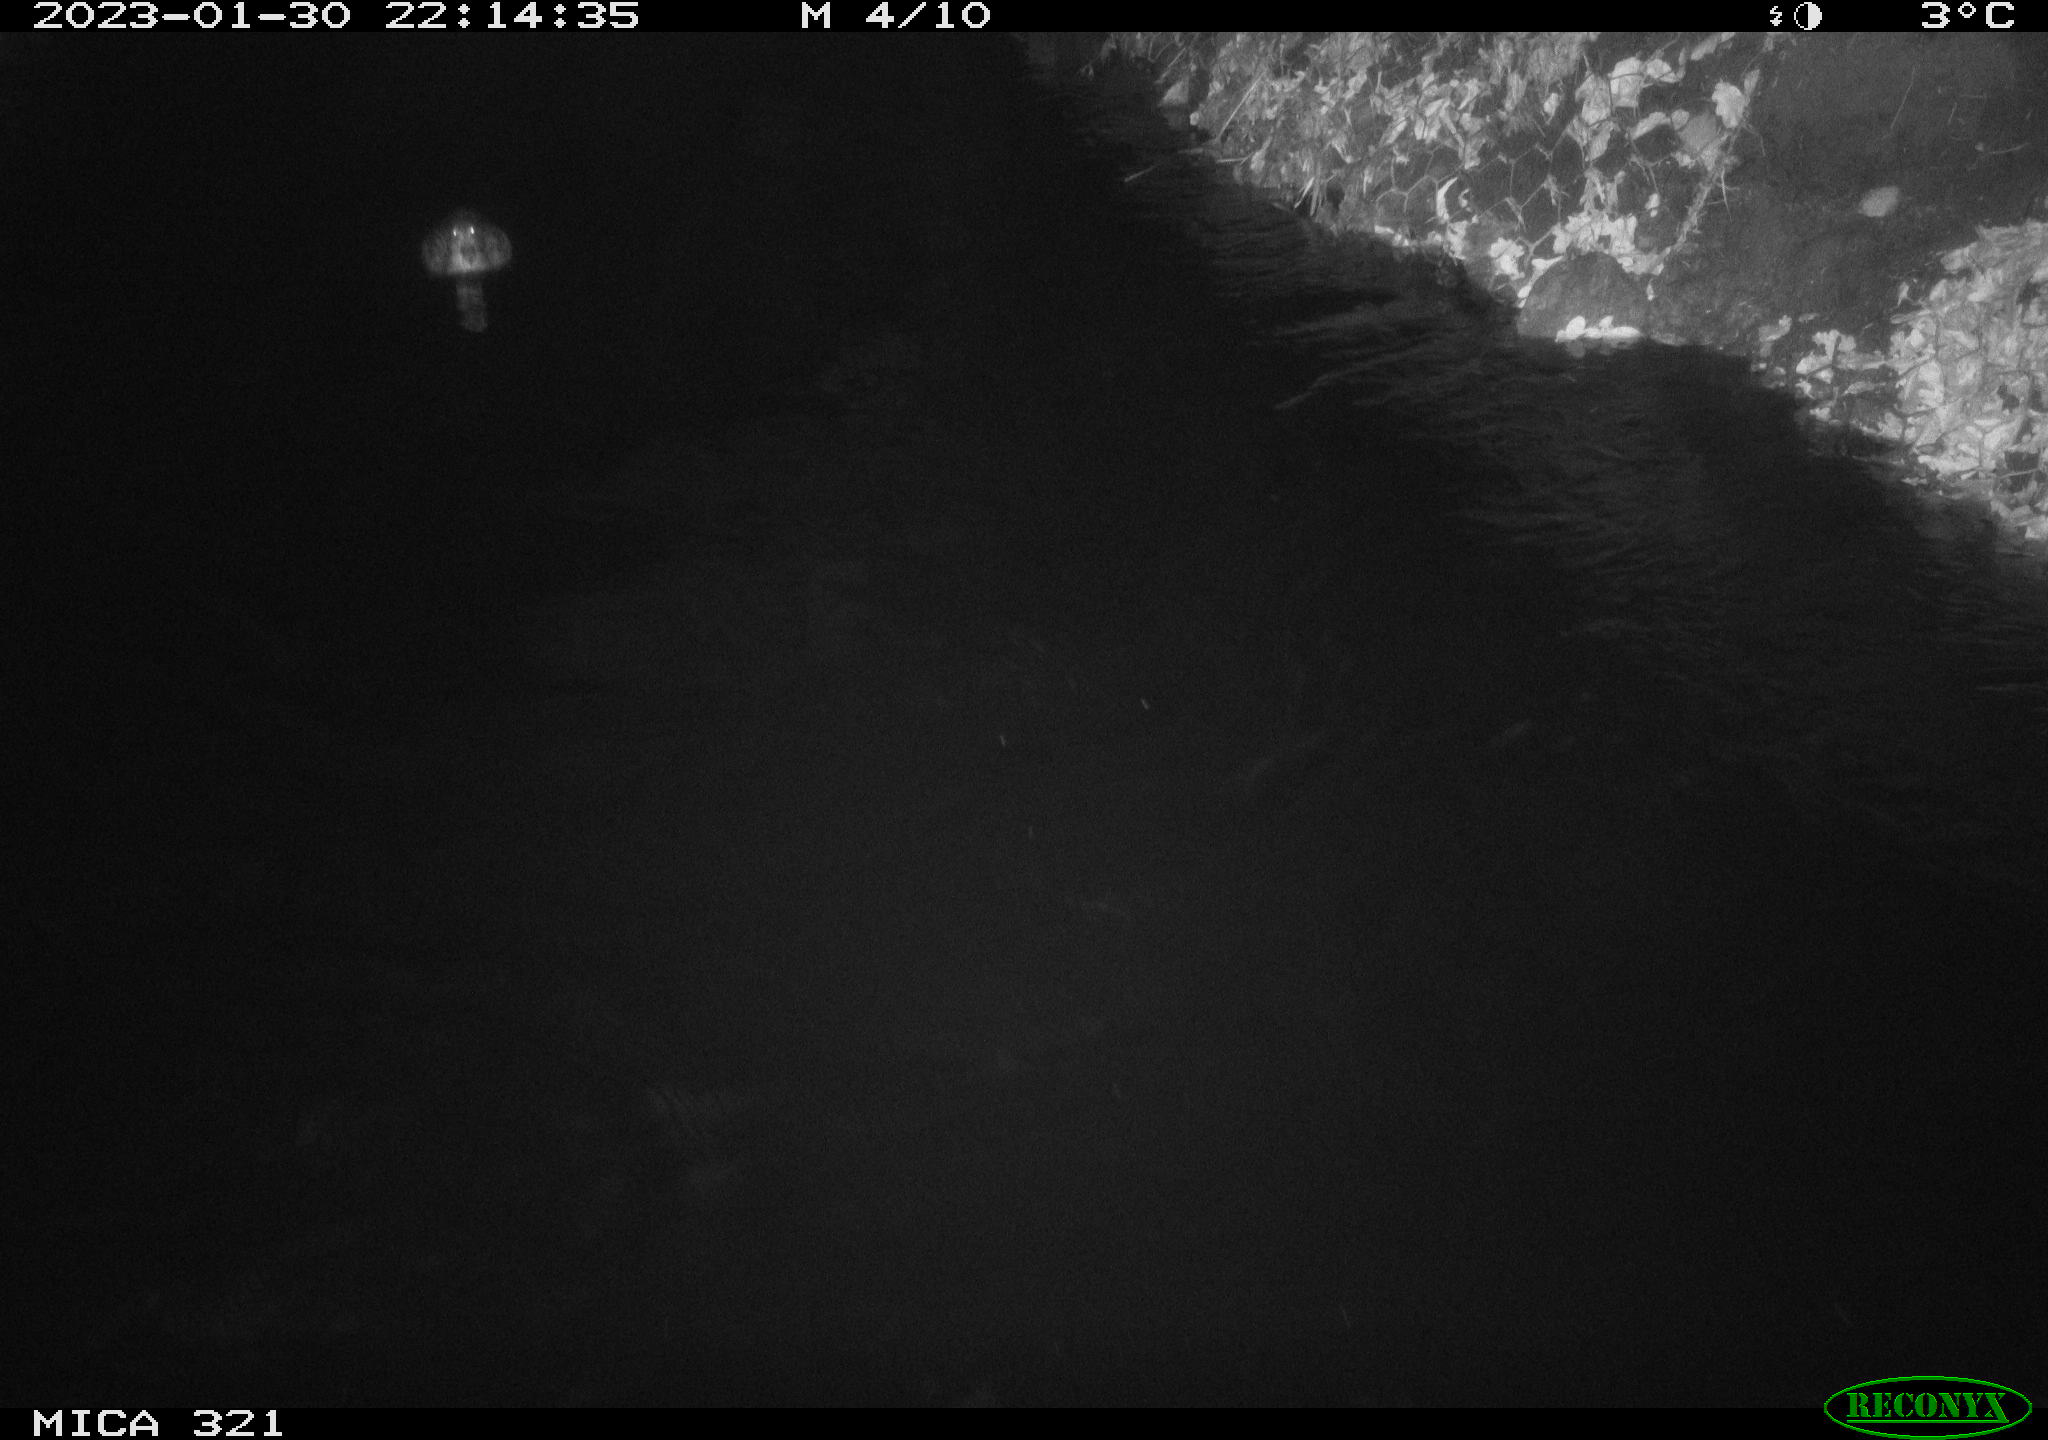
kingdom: Animalia
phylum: Chordata
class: Mammalia
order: Rodentia
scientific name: Rodentia
